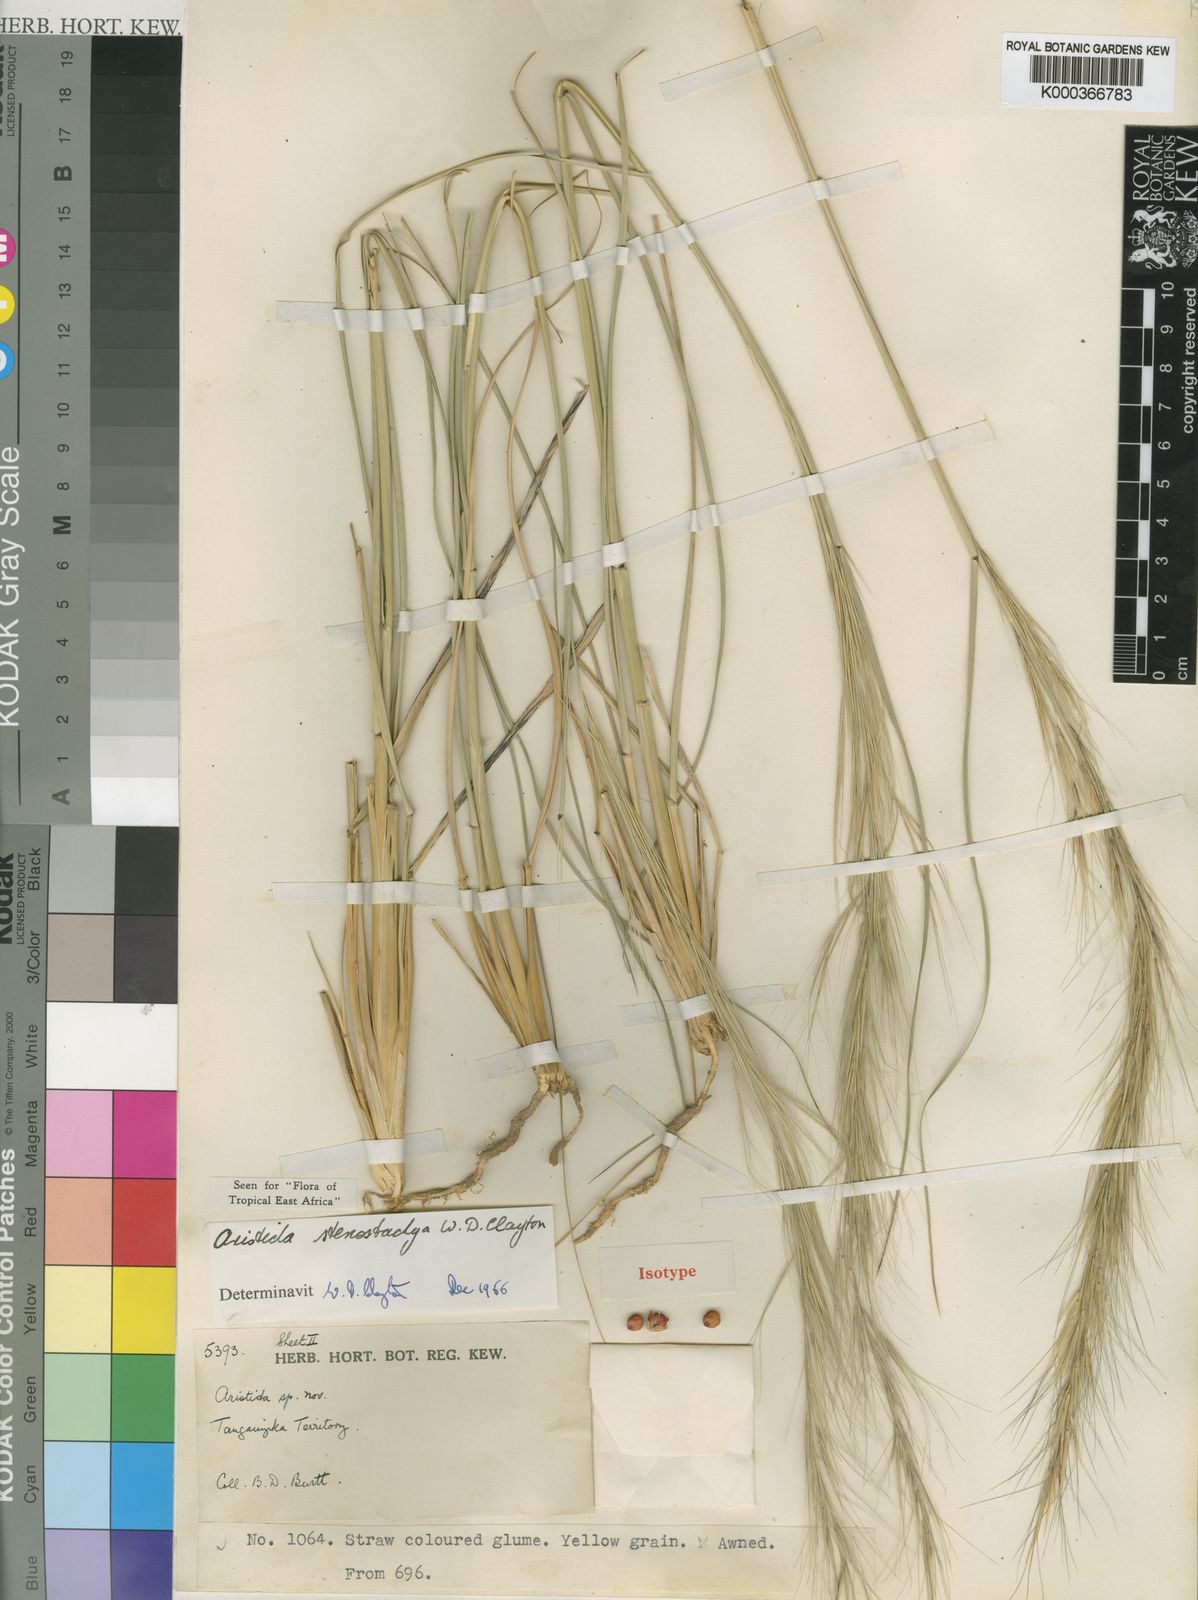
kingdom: Plantae
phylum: Tracheophyta
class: Liliopsida
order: Poales
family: Poaceae
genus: Aristida
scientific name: Aristida stenostachya
